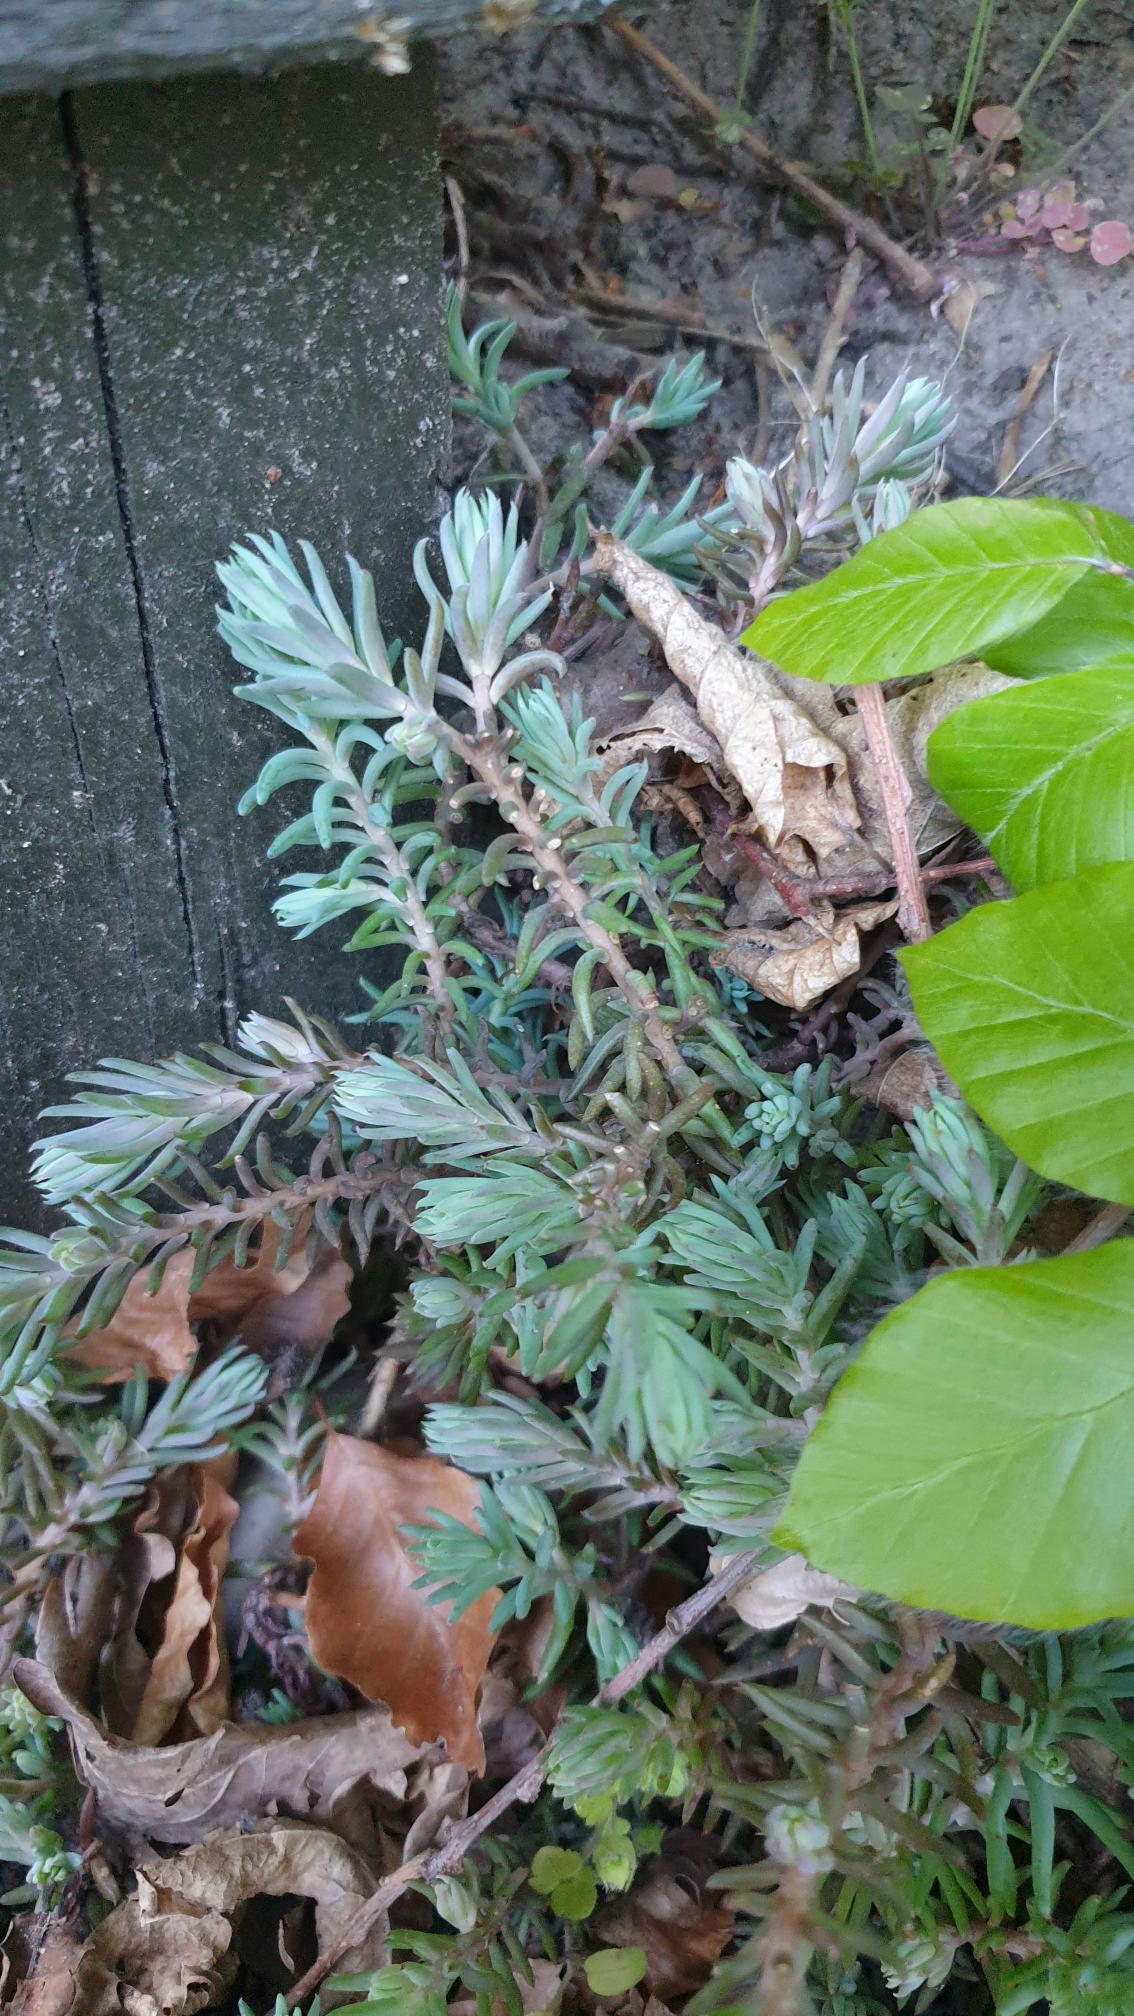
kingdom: Plantae
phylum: Tracheophyta
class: Magnoliopsida
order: Saxifragales
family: Crassulaceae
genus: Petrosedum
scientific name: Petrosedum rupestre
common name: Bjerg-stenurt
